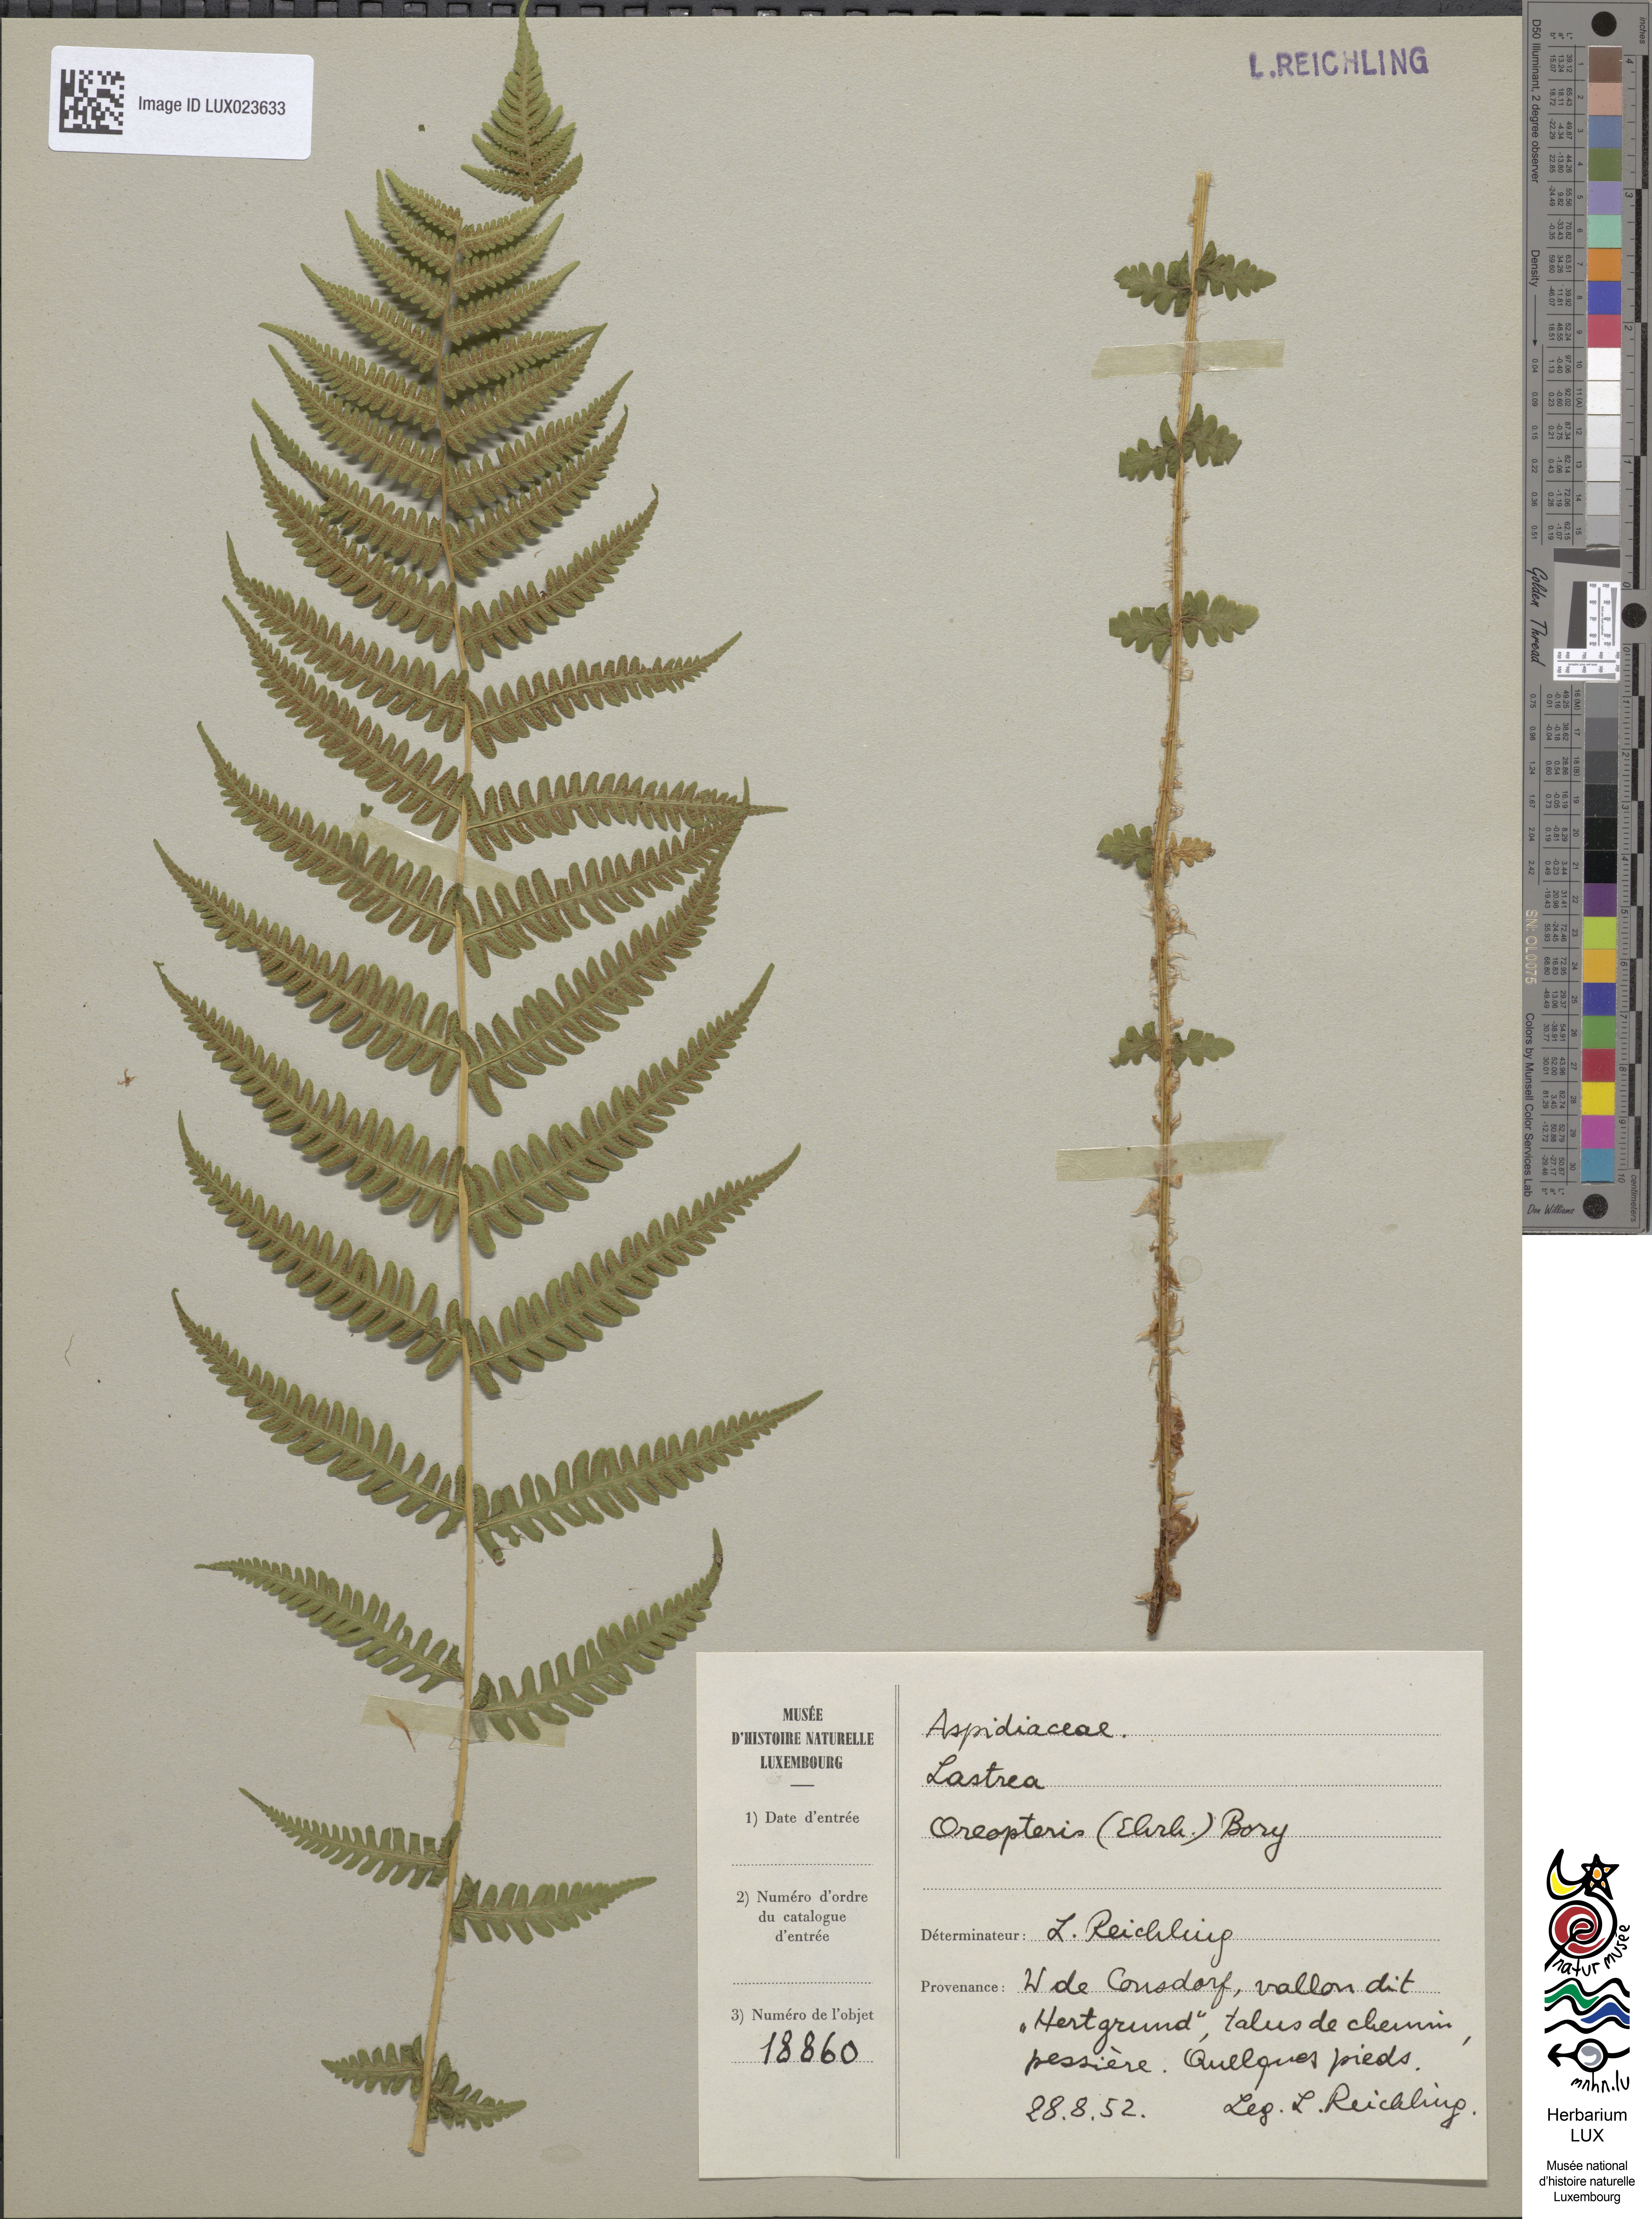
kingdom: Plantae
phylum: Tracheophyta
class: Polypodiopsida
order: Polypodiales
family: Thelypteridaceae
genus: Oreopteris
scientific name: Oreopteris limbosperma
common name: Lemon-scented fern
